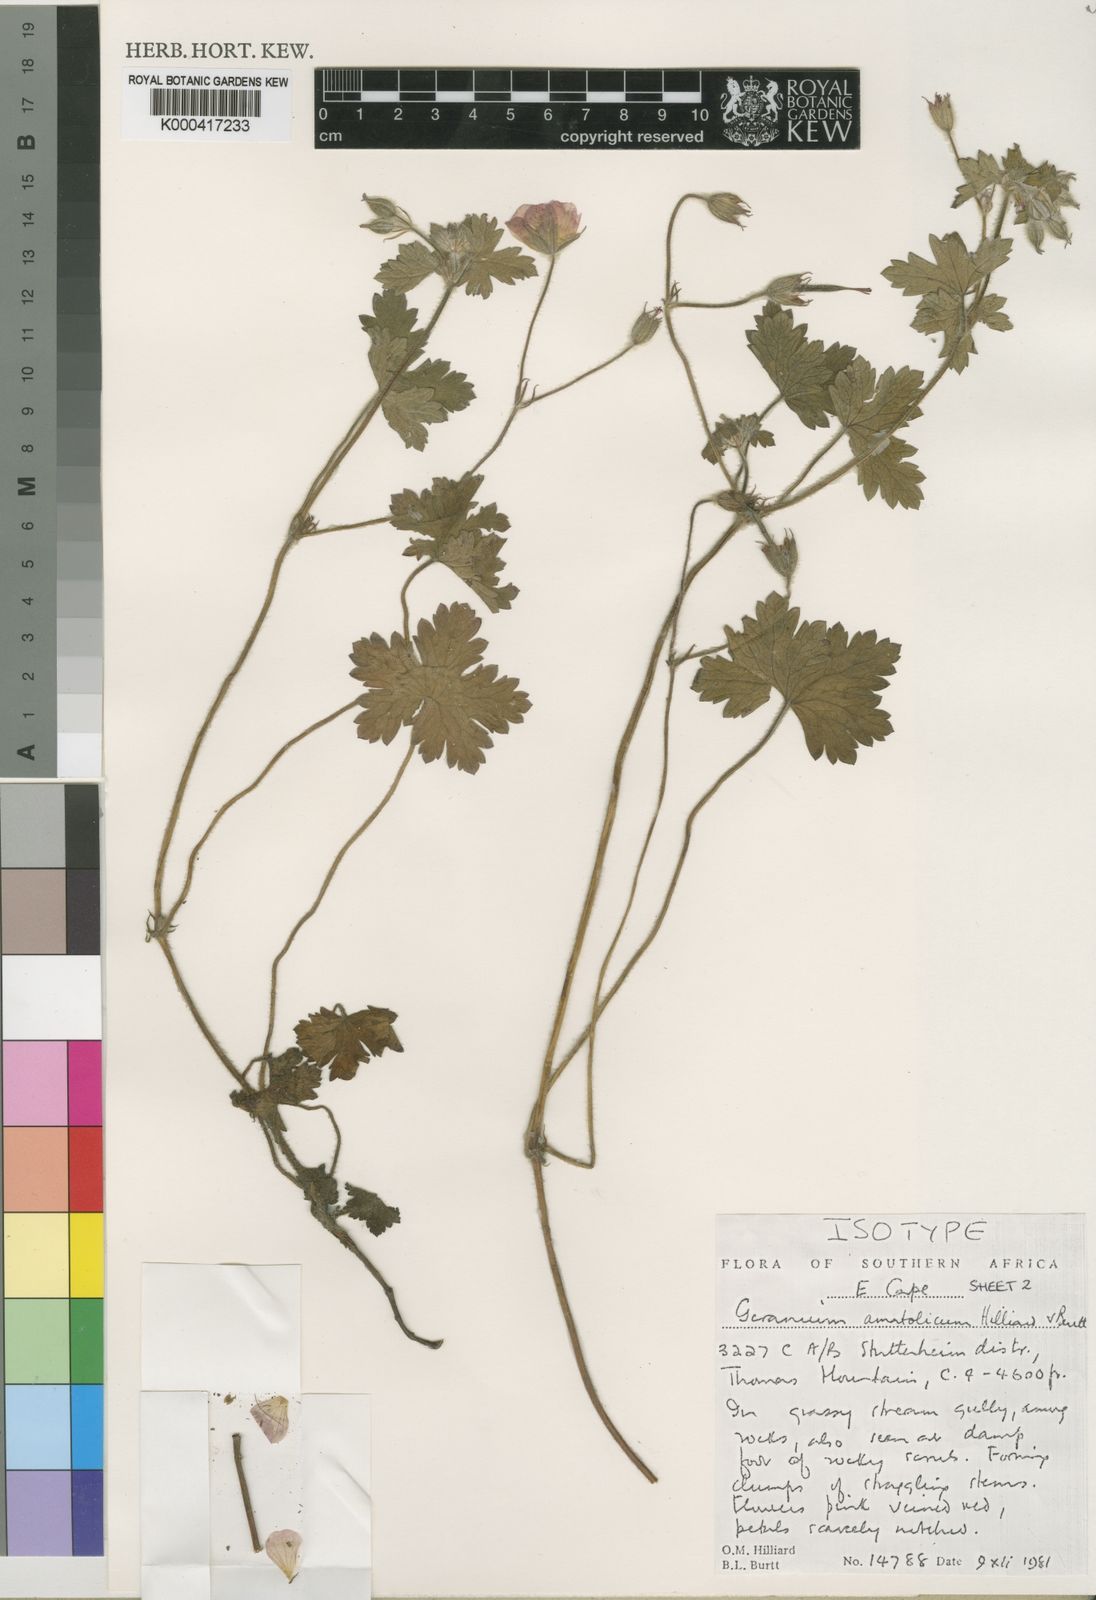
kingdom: Plantae
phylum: Tracheophyta
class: Magnoliopsida
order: Geraniales
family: Geraniaceae
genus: Geranium
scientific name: Geranium amatolicum
